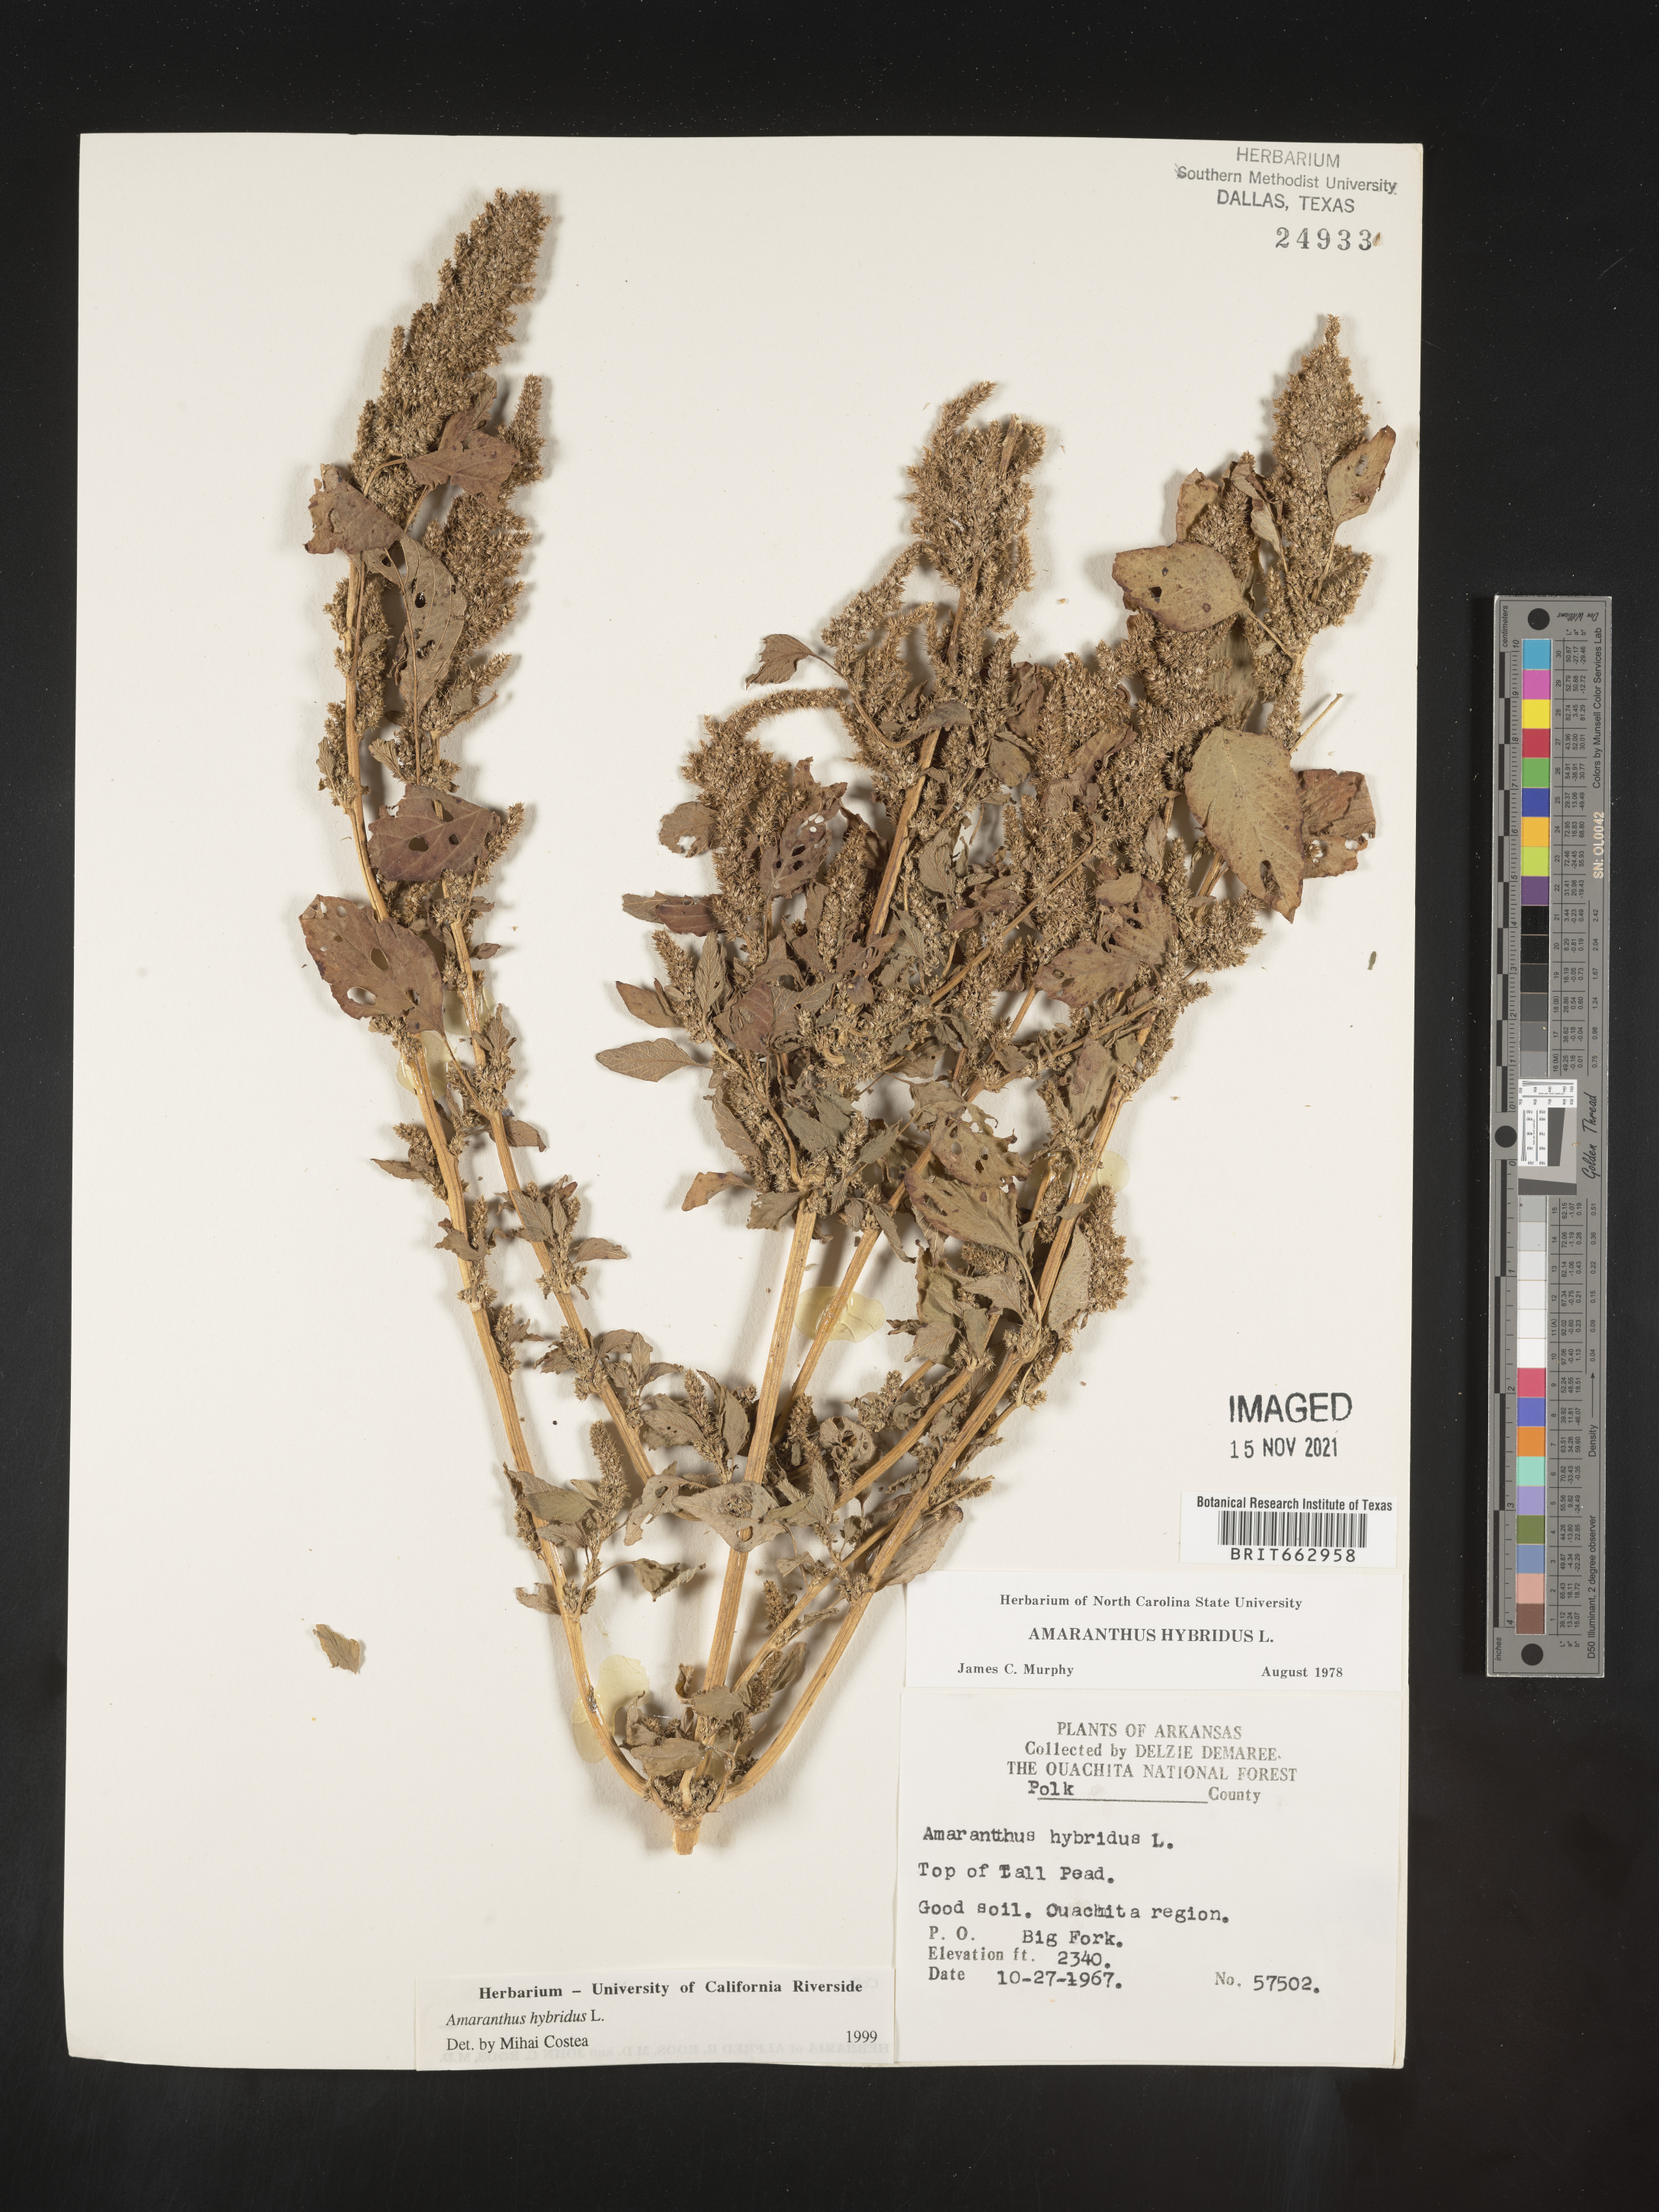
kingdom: Plantae
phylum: Tracheophyta
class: Magnoliopsida
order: Caryophyllales
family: Amaranthaceae
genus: Amaranthus
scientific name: Amaranthus hybridus
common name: Green amaranth
